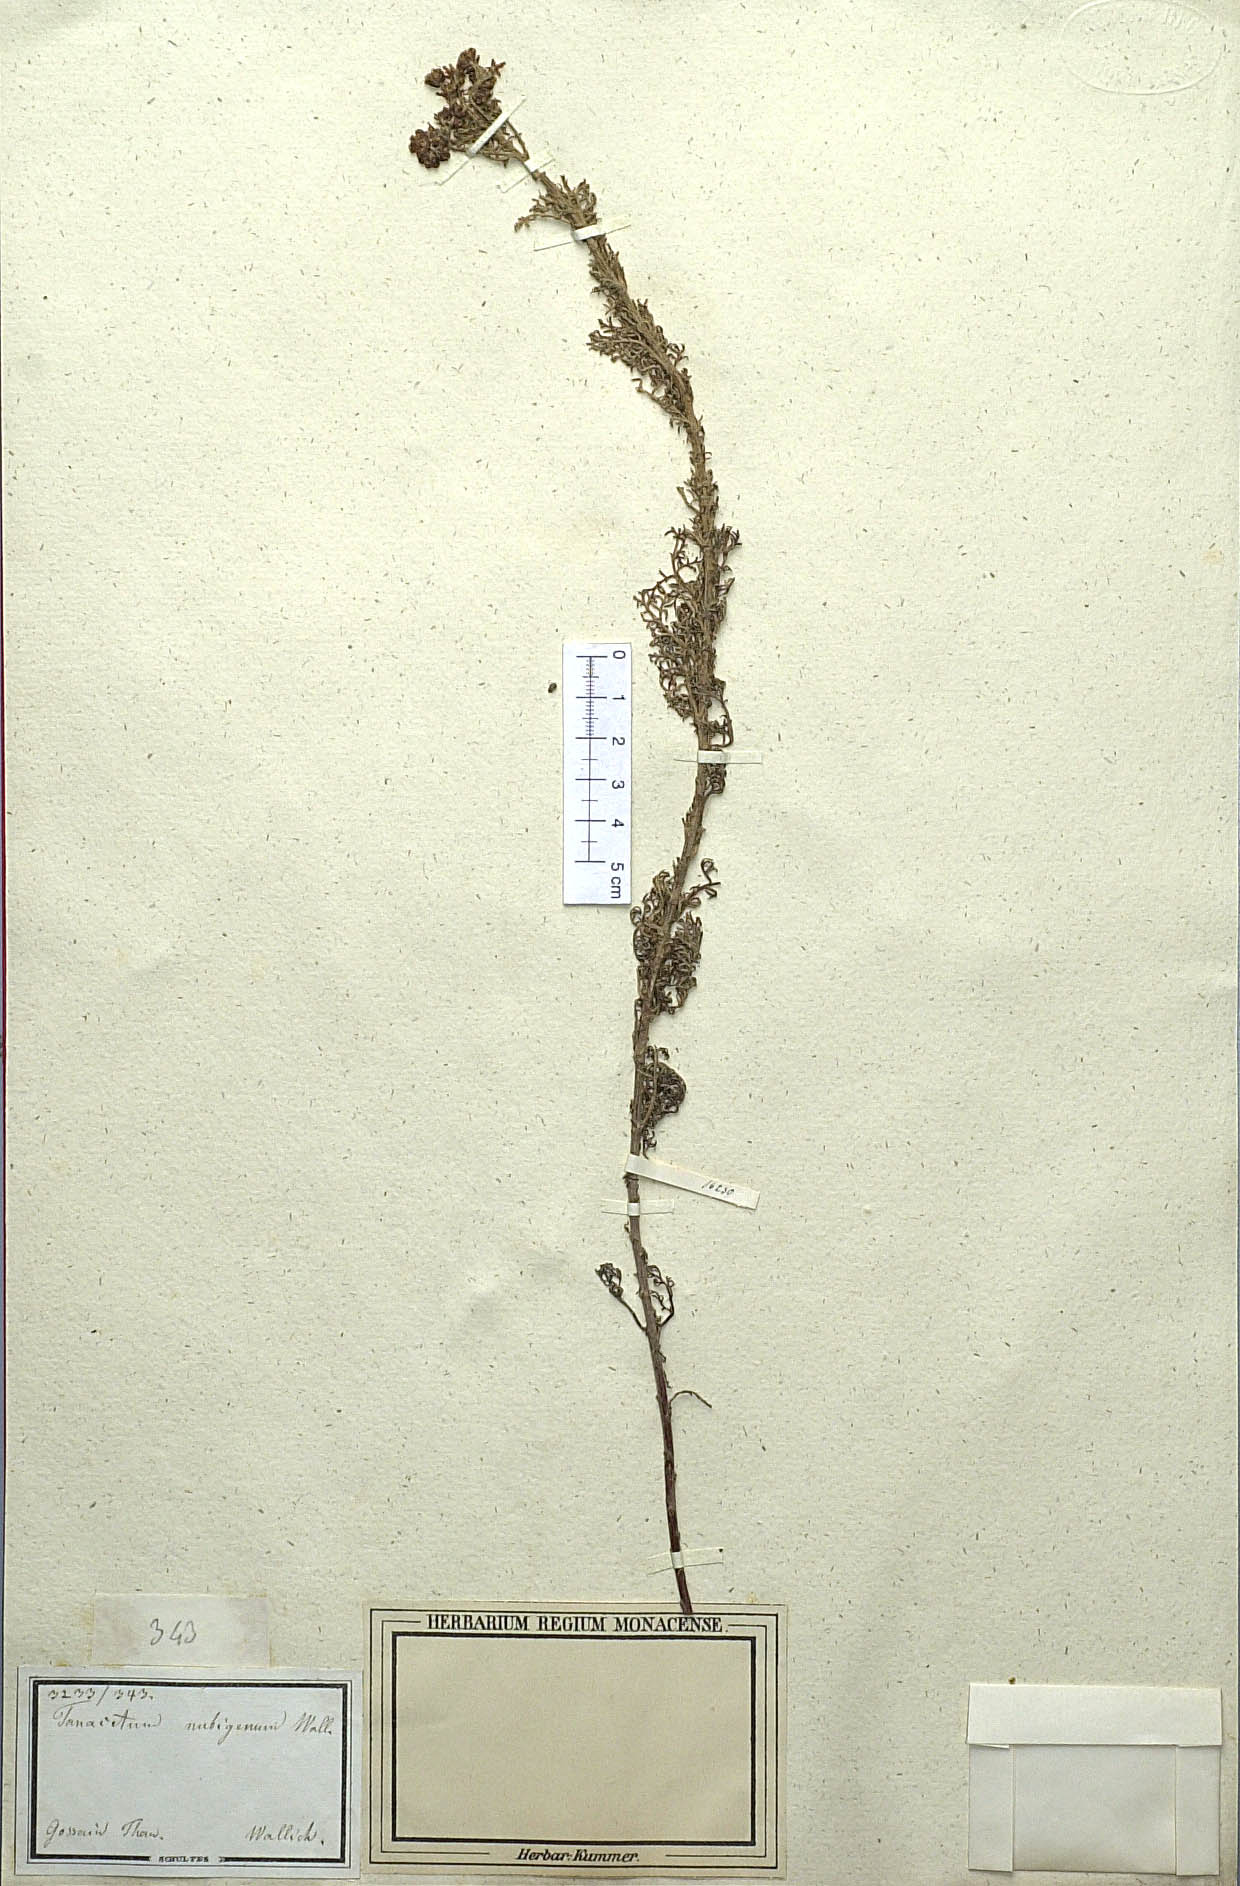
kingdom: Plantae
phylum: Tracheophyta
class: Magnoliopsida
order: Asterales
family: Asteraceae
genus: Ajania
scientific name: Ajania nubigena
